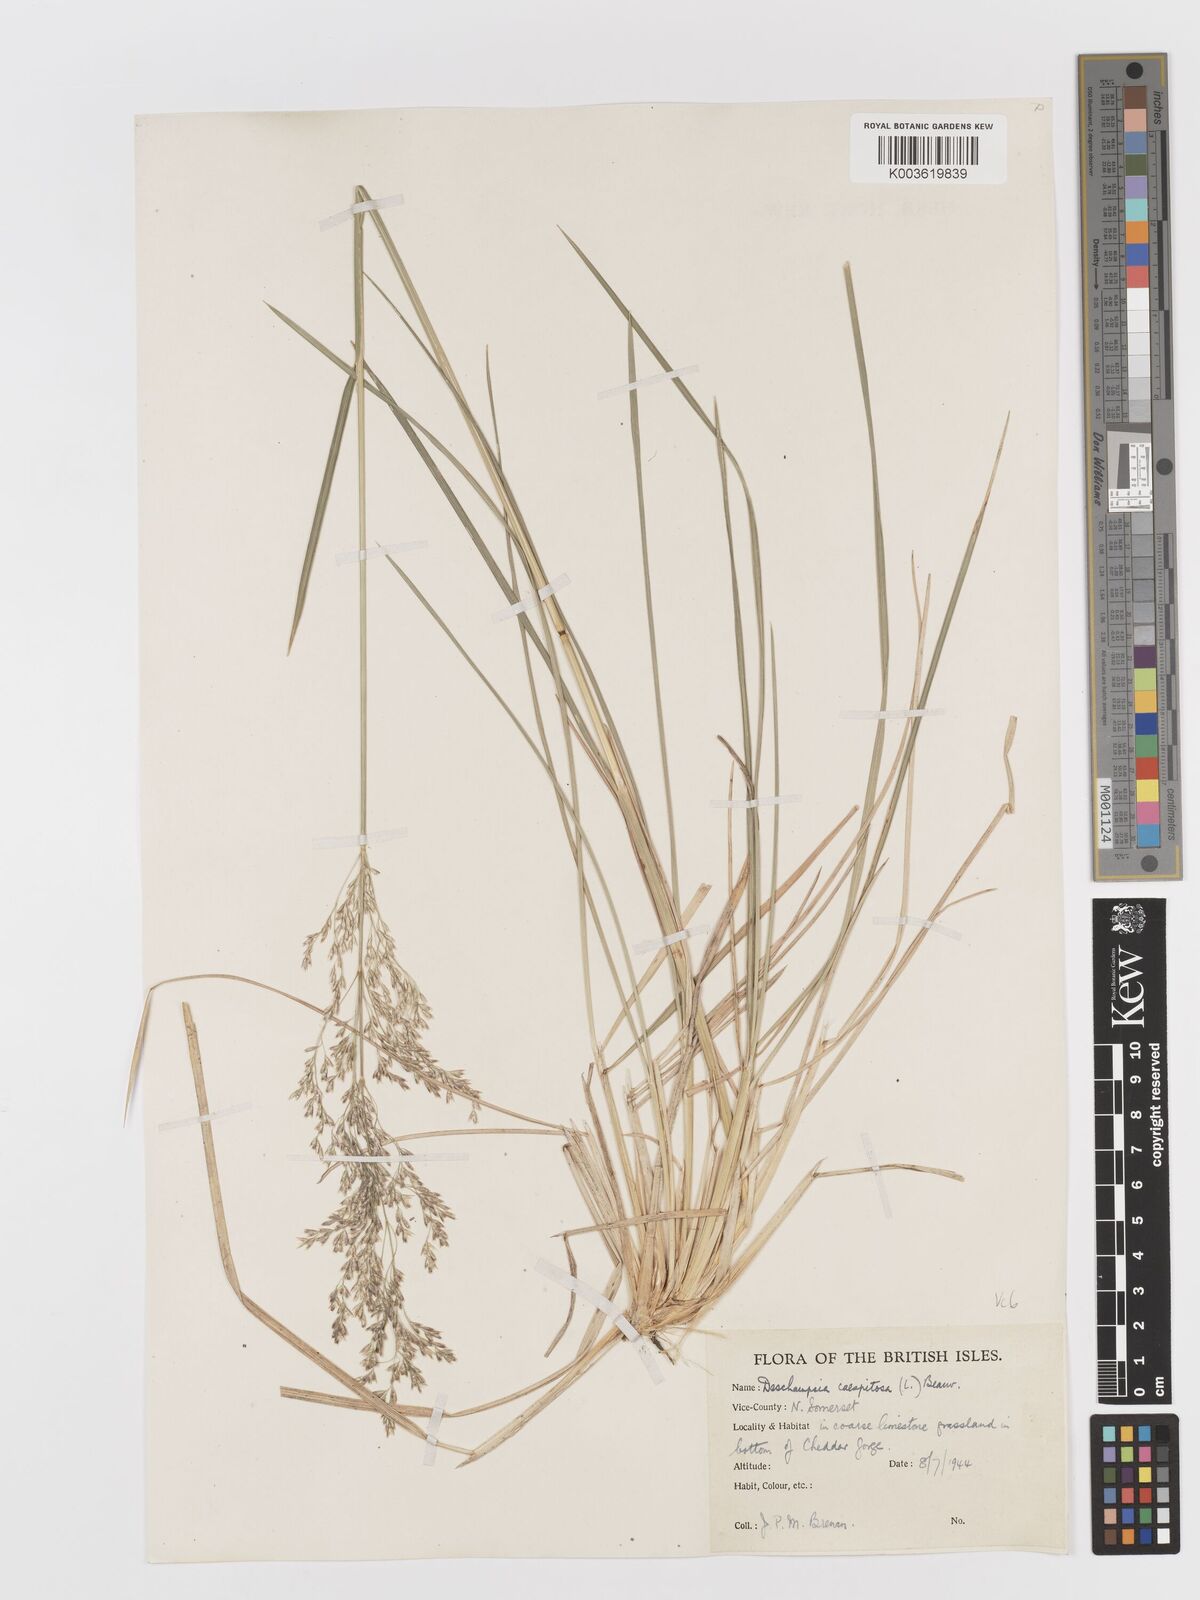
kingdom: Plantae
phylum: Tracheophyta
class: Liliopsida
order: Poales
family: Poaceae
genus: Deschampsia
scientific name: Deschampsia cespitosa
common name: Tufted hair-grass
